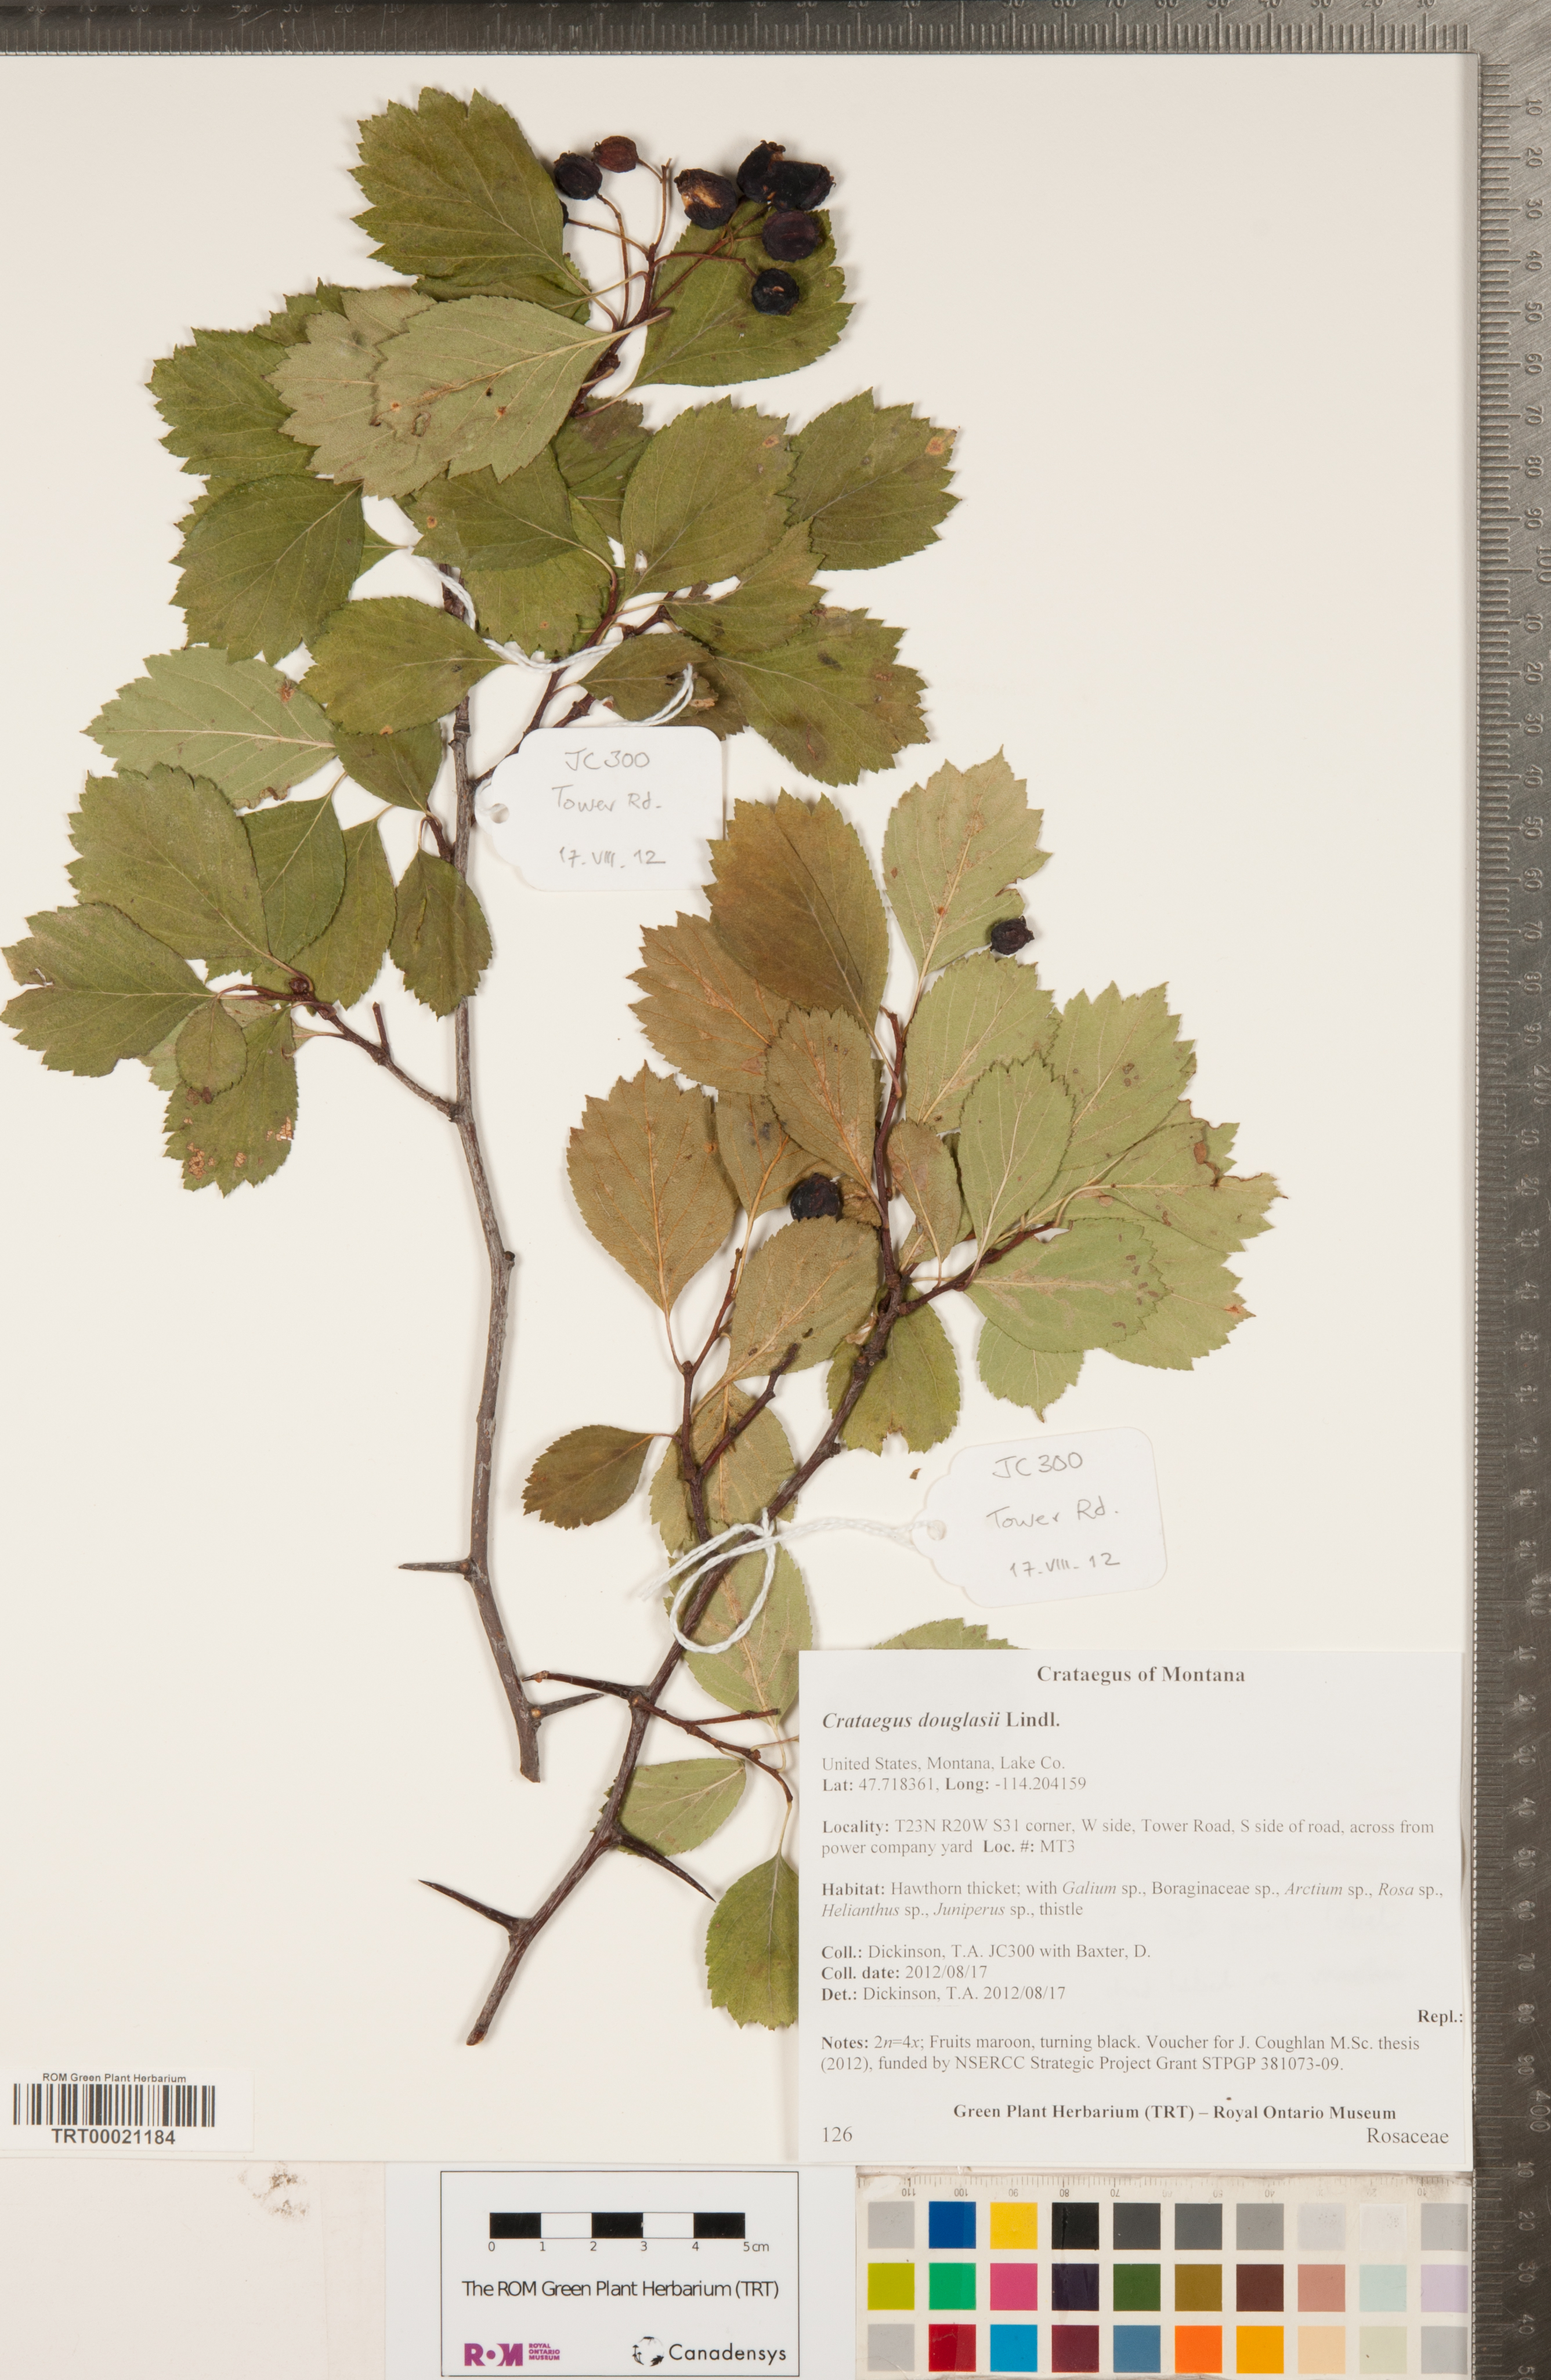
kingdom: Plantae
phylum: Tracheophyta
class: Magnoliopsida
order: Rosales
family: Rosaceae
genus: Crataegus
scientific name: Crataegus douglasii
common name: Black hawthorn
